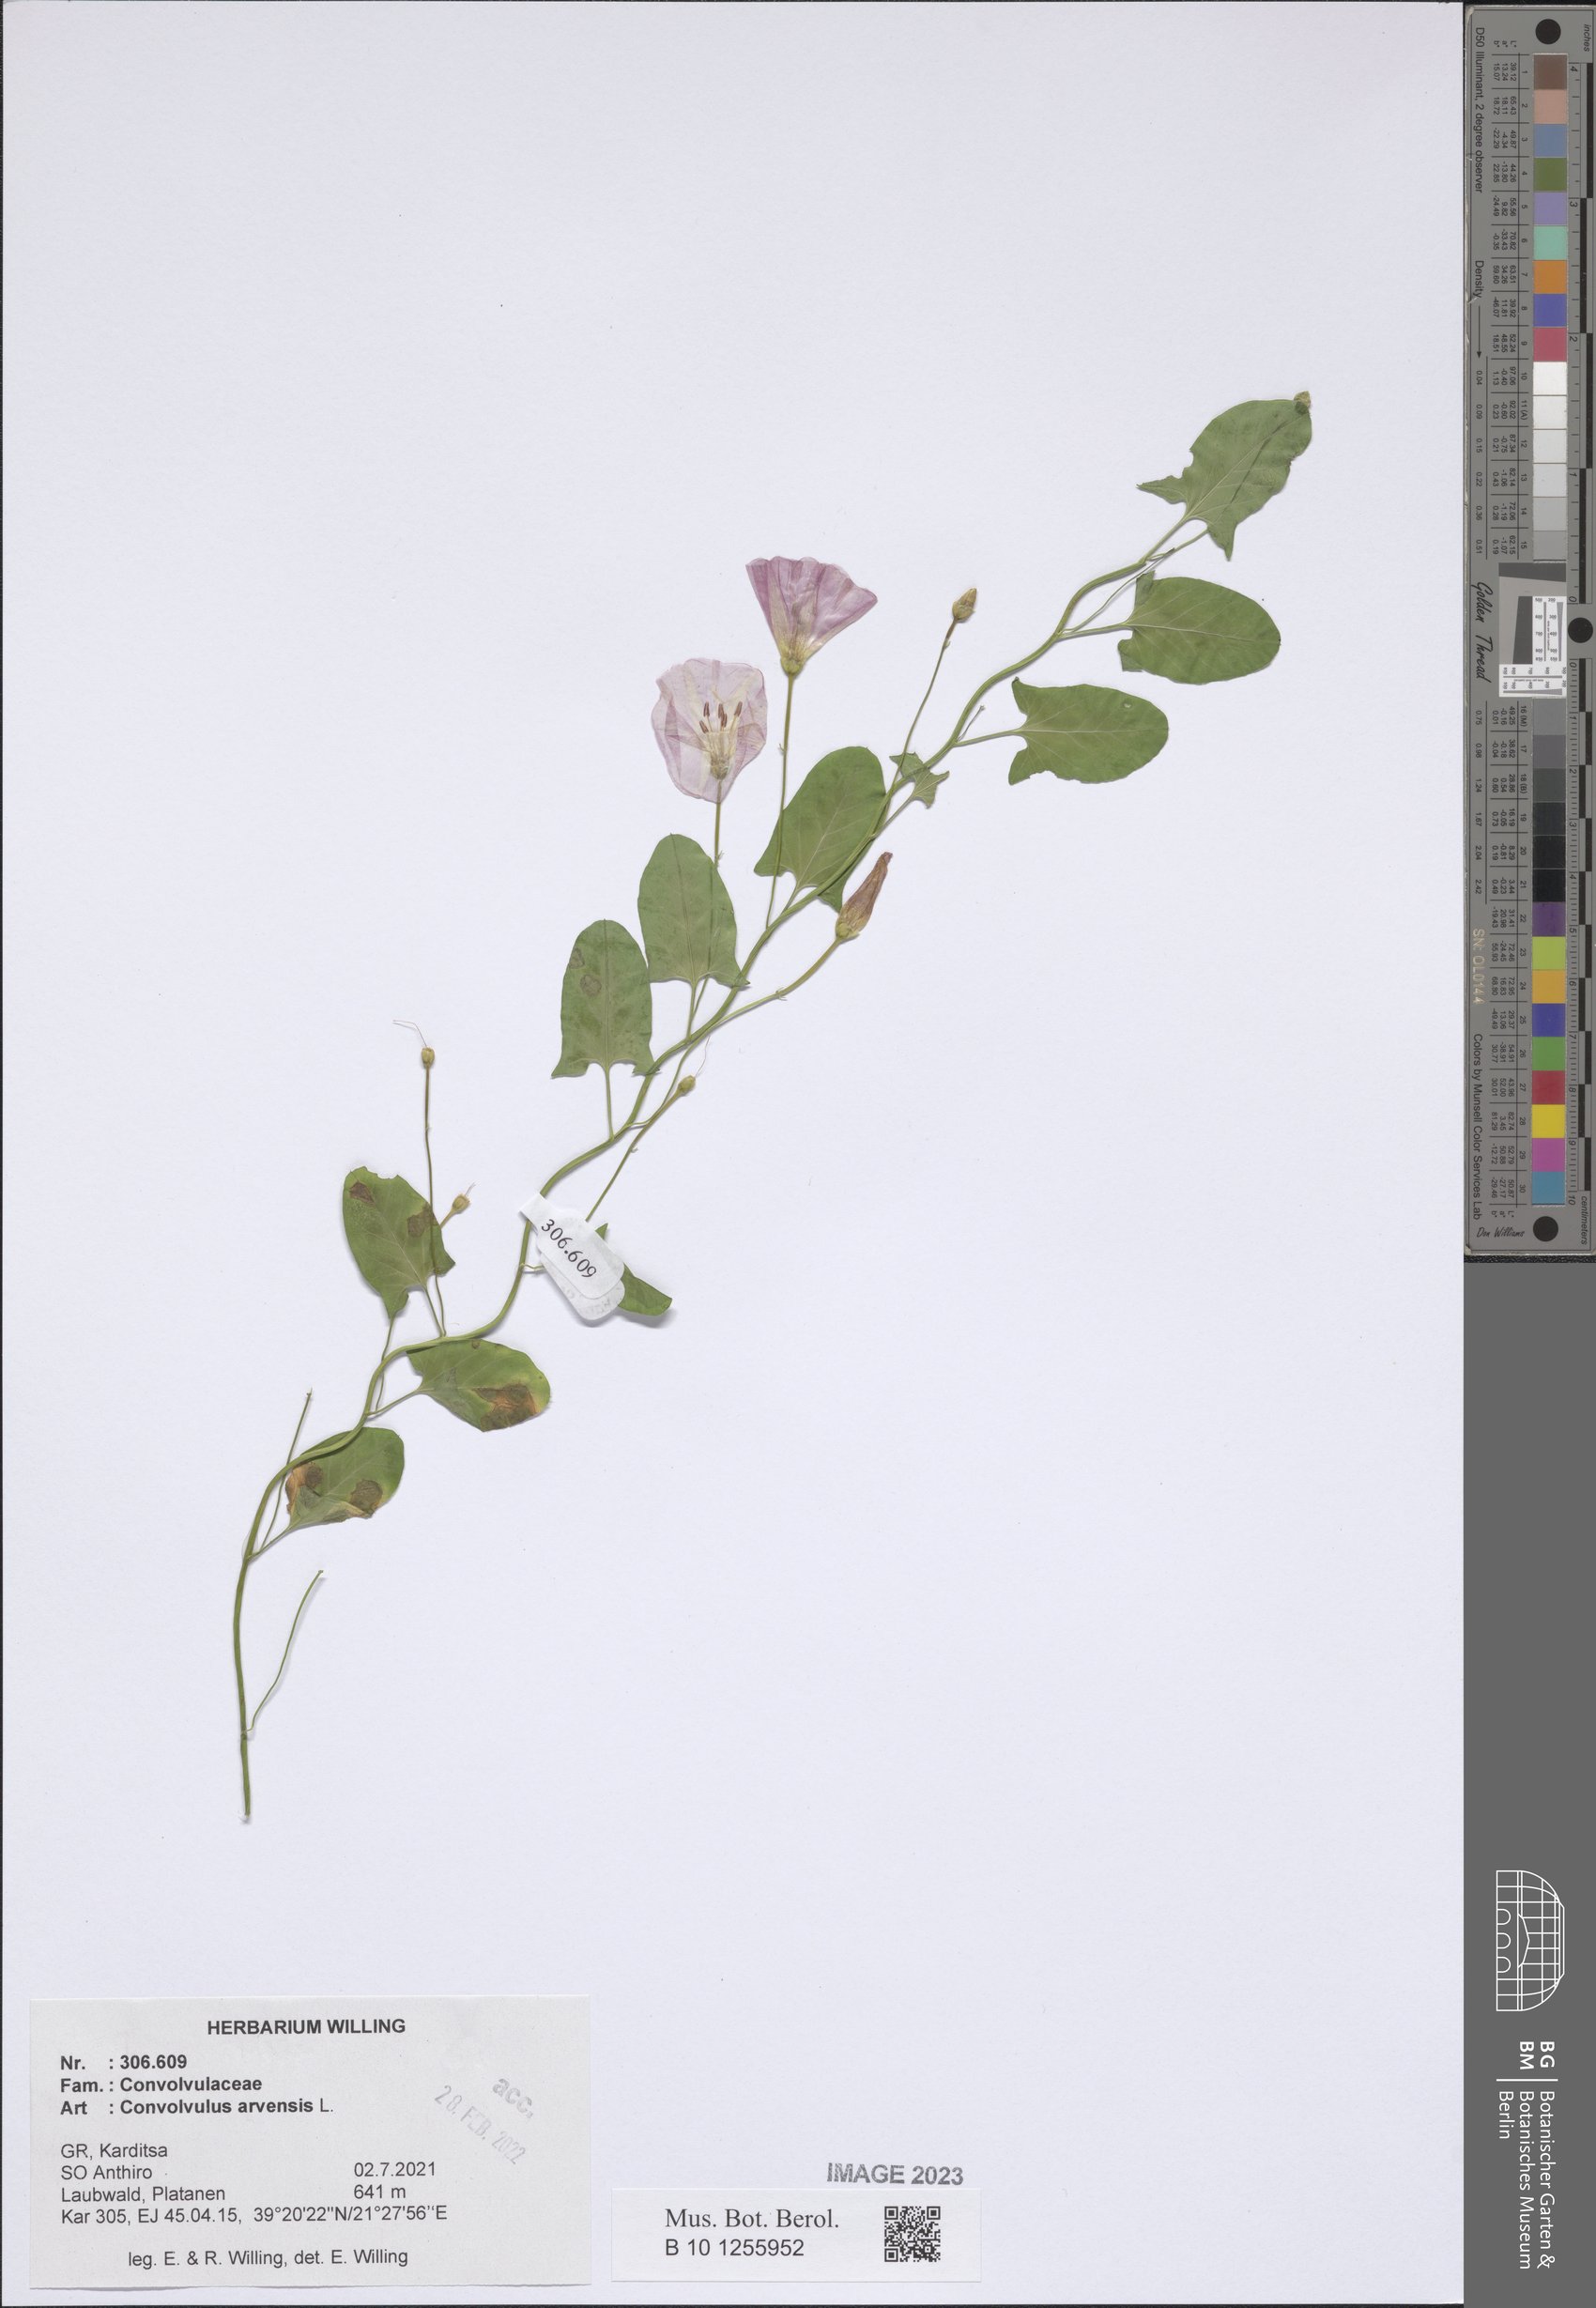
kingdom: Plantae
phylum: Tracheophyta
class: Magnoliopsida
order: Solanales
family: Convolvulaceae
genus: Convolvulus
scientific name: Convolvulus arvensis
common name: Field bindweed
